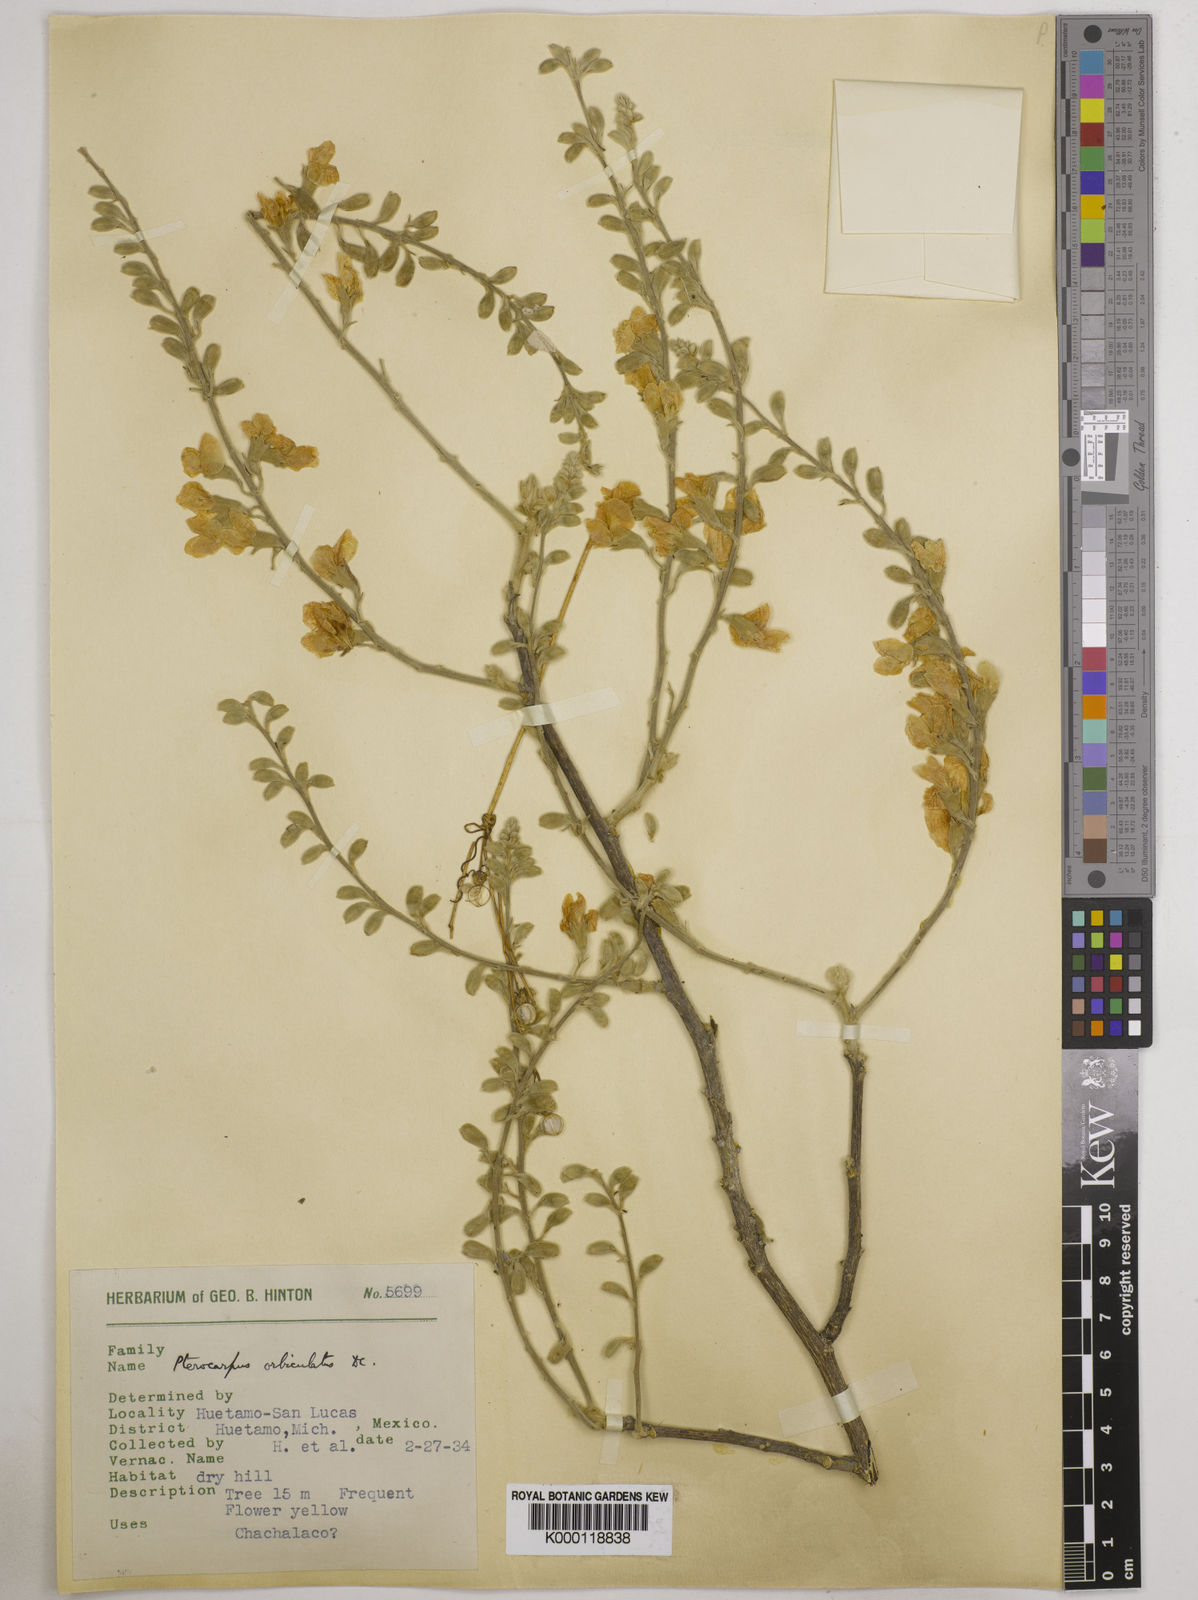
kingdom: Plantae
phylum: Tracheophyta
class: Magnoliopsida
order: Fabales
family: Fabaceae
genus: Pterocarpus
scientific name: Pterocarpus orbiculatus
